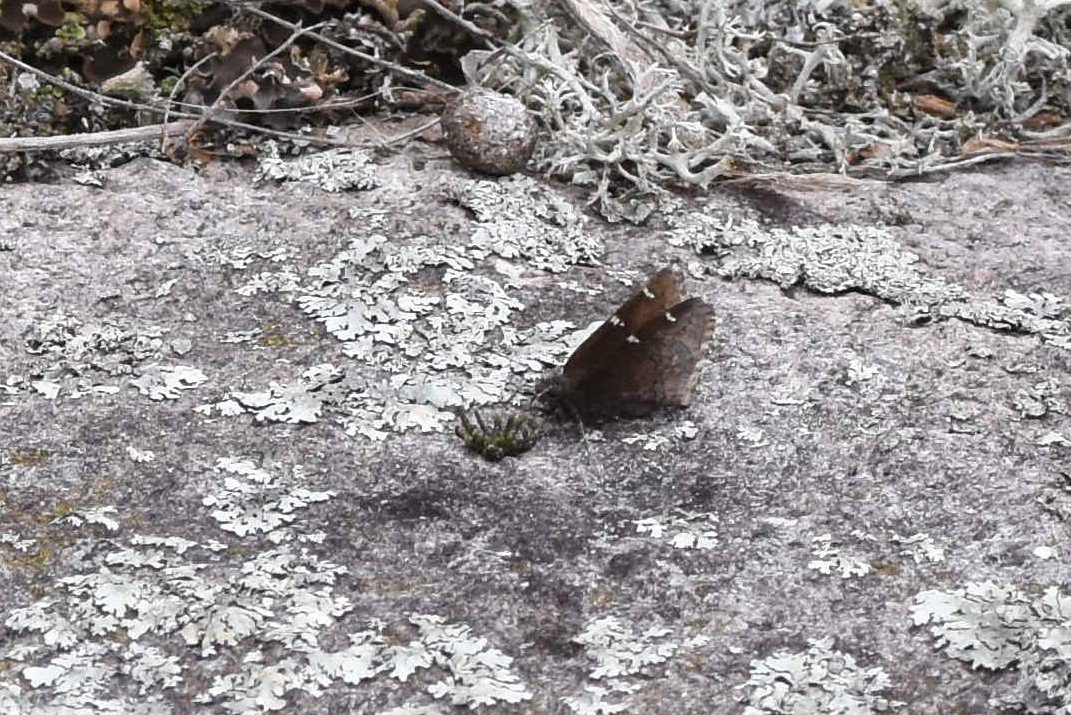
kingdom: Animalia
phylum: Arthropoda
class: Insecta
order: Lepidoptera
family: Hesperiidae
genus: Autochton
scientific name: Autochton
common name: Northern Cloudywing
